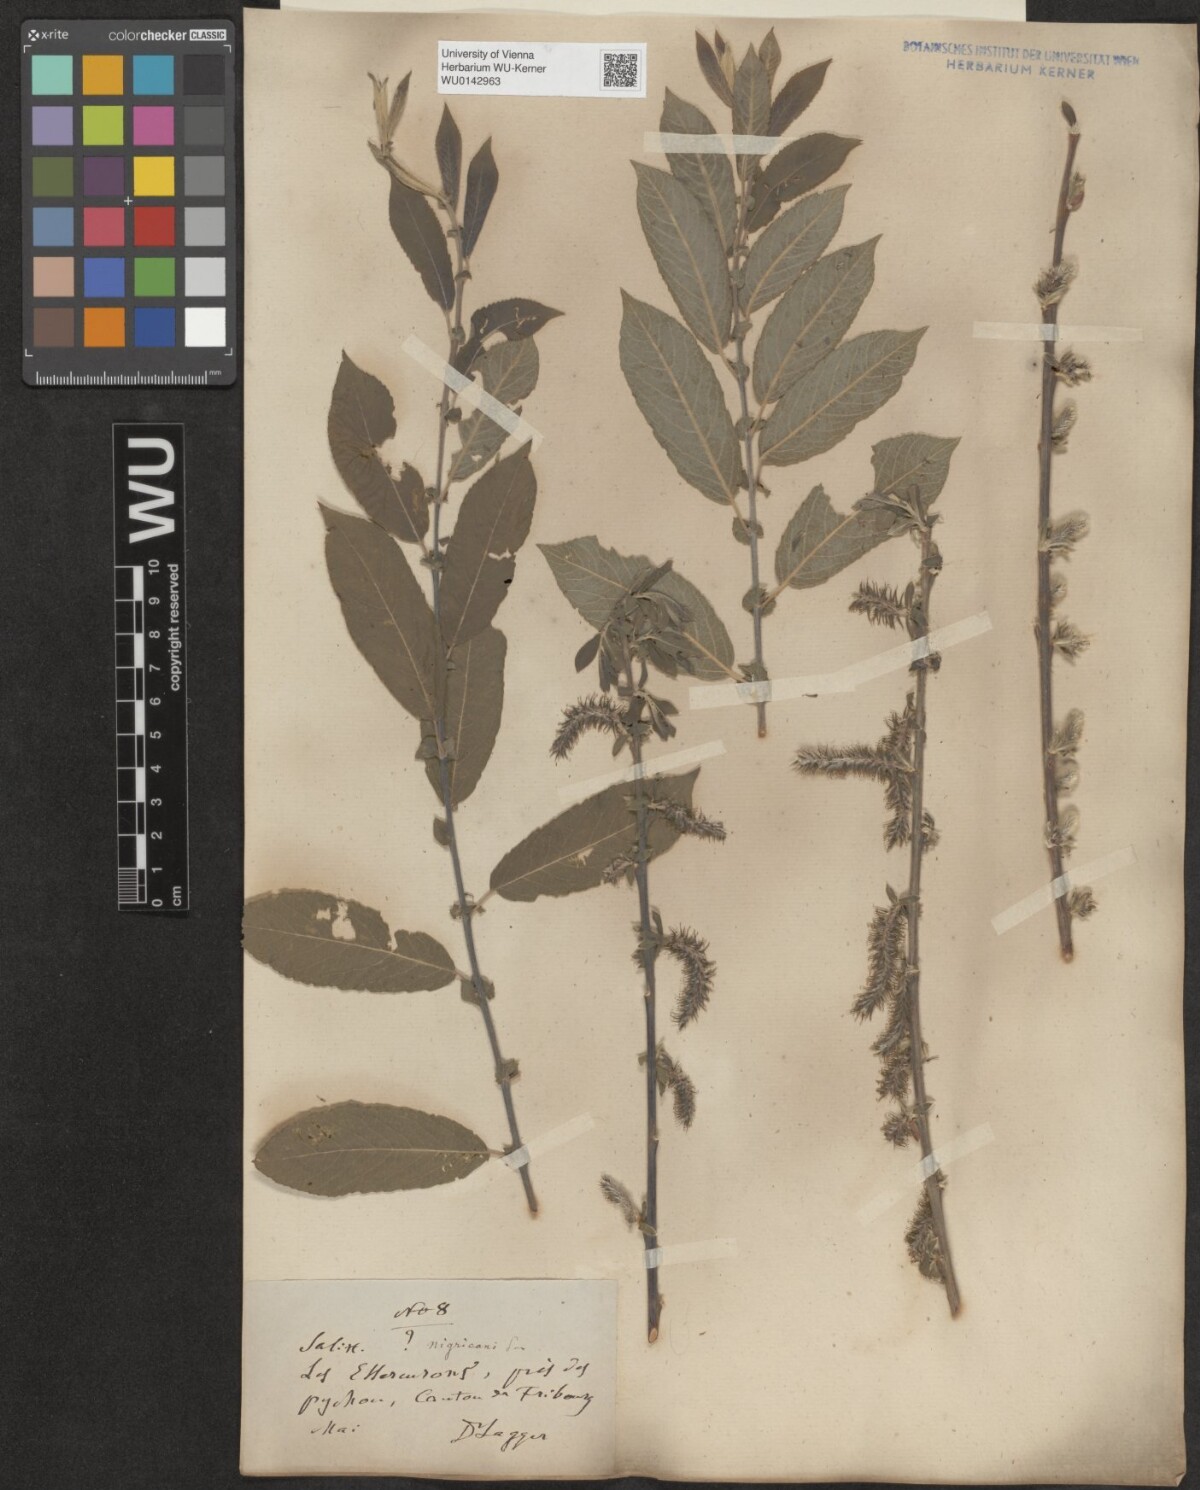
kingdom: Plantae
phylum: Tracheophyta
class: Magnoliopsida
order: Malpighiales
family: Salicaceae
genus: Salix
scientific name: Salix myrsinifolia
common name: Dark-leaved willow
